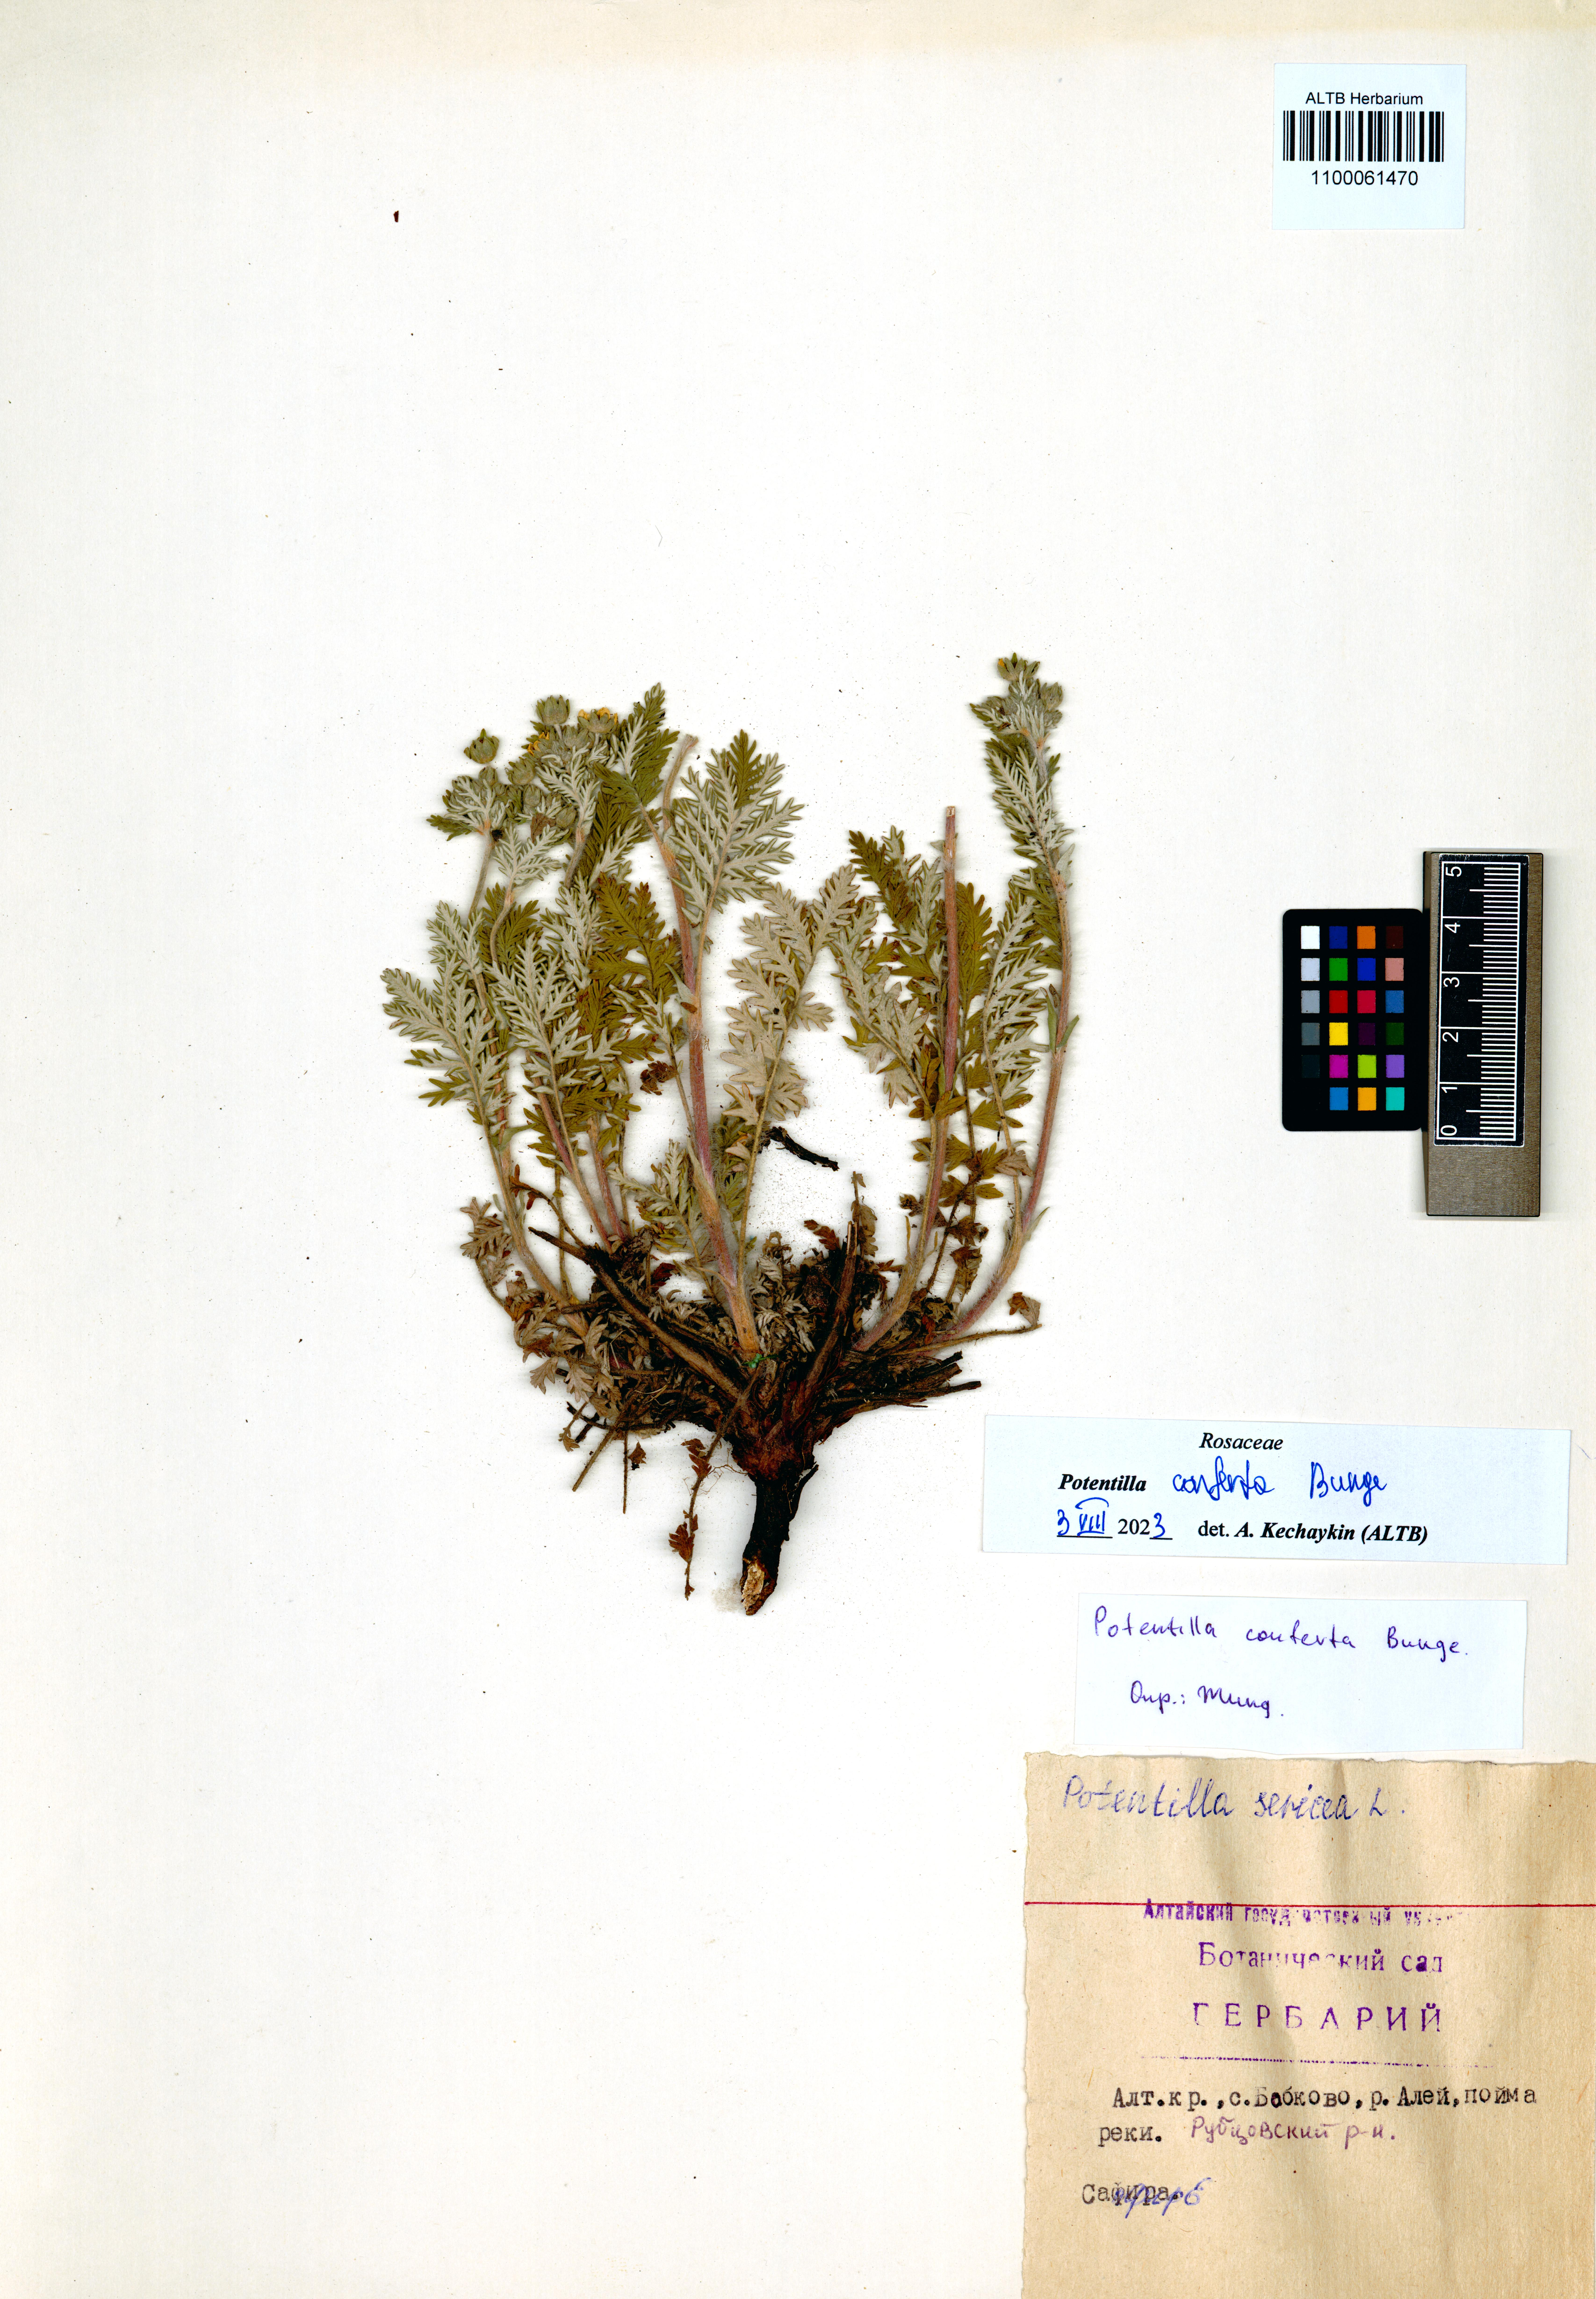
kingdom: Plantae
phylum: Tracheophyta
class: Magnoliopsida
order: Rosales
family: Rosaceae
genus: Potentilla
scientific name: Potentilla conferta
